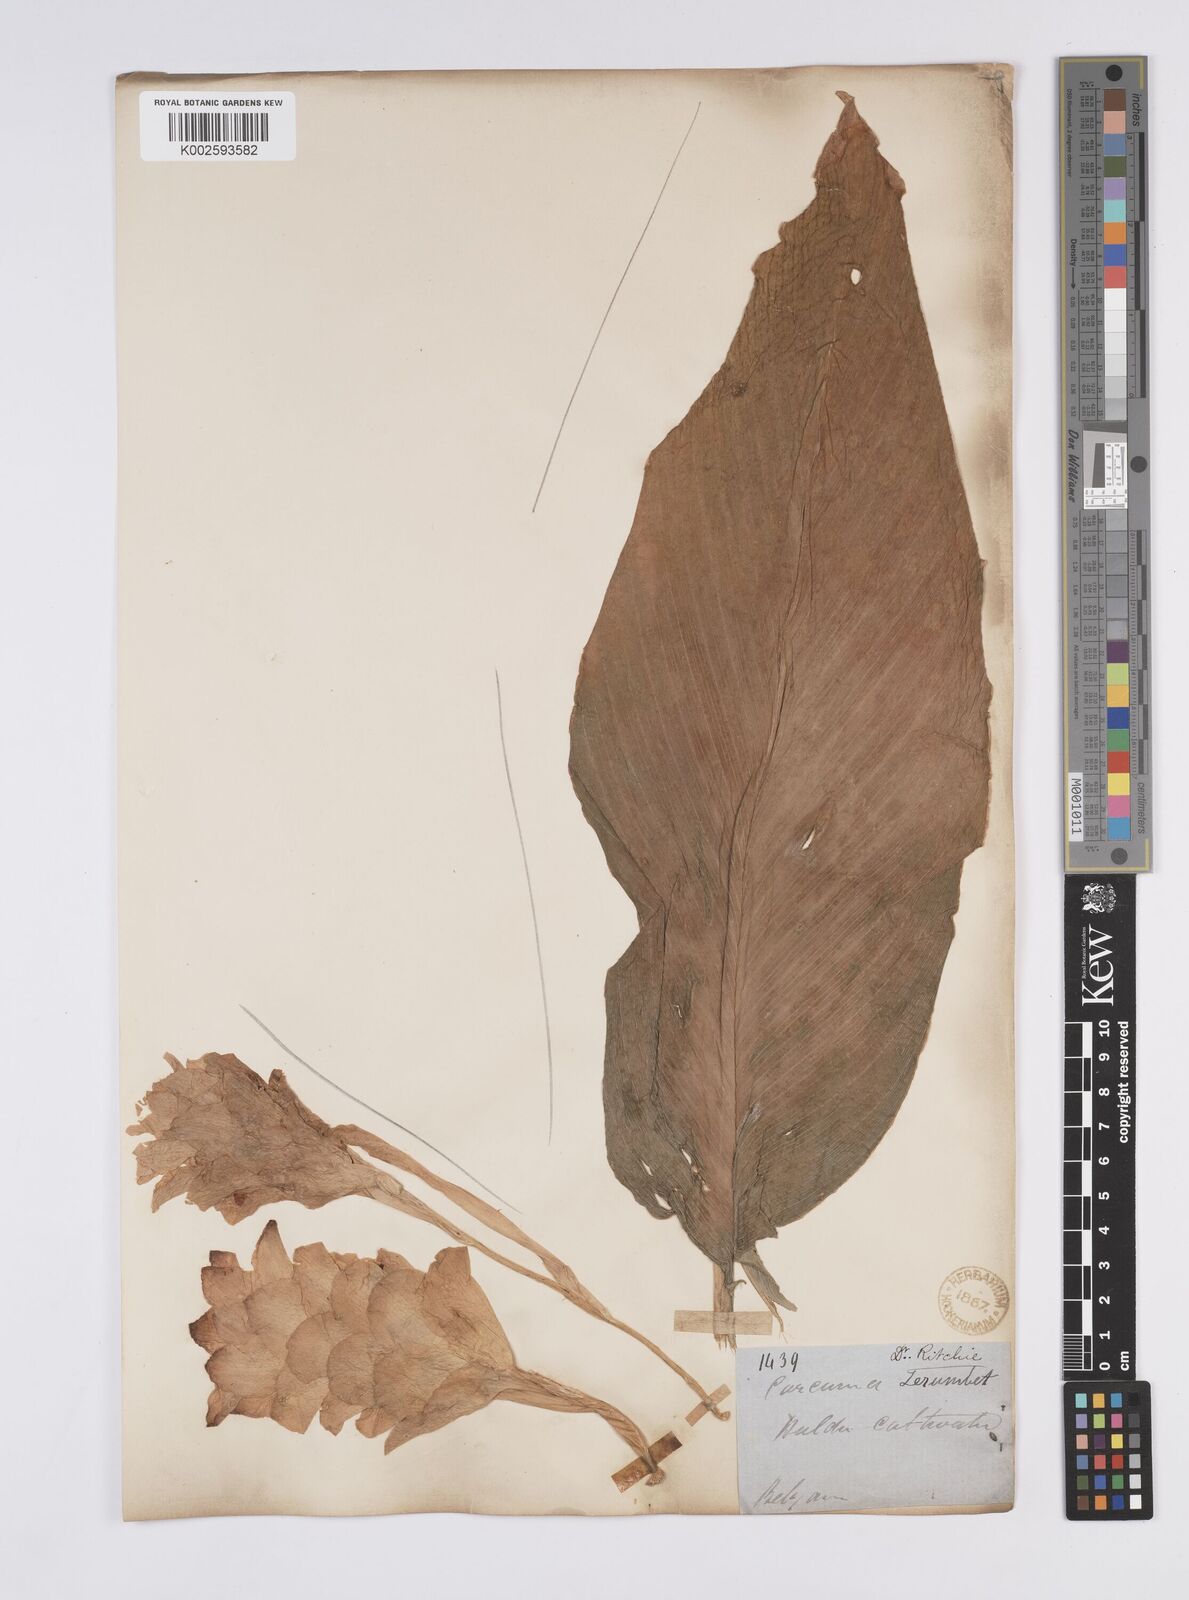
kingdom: Plantae
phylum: Tracheophyta
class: Liliopsida
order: Zingiberales
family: Zingiberaceae
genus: Curcuma
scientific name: Curcuma aromatica
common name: Wild turmeric
